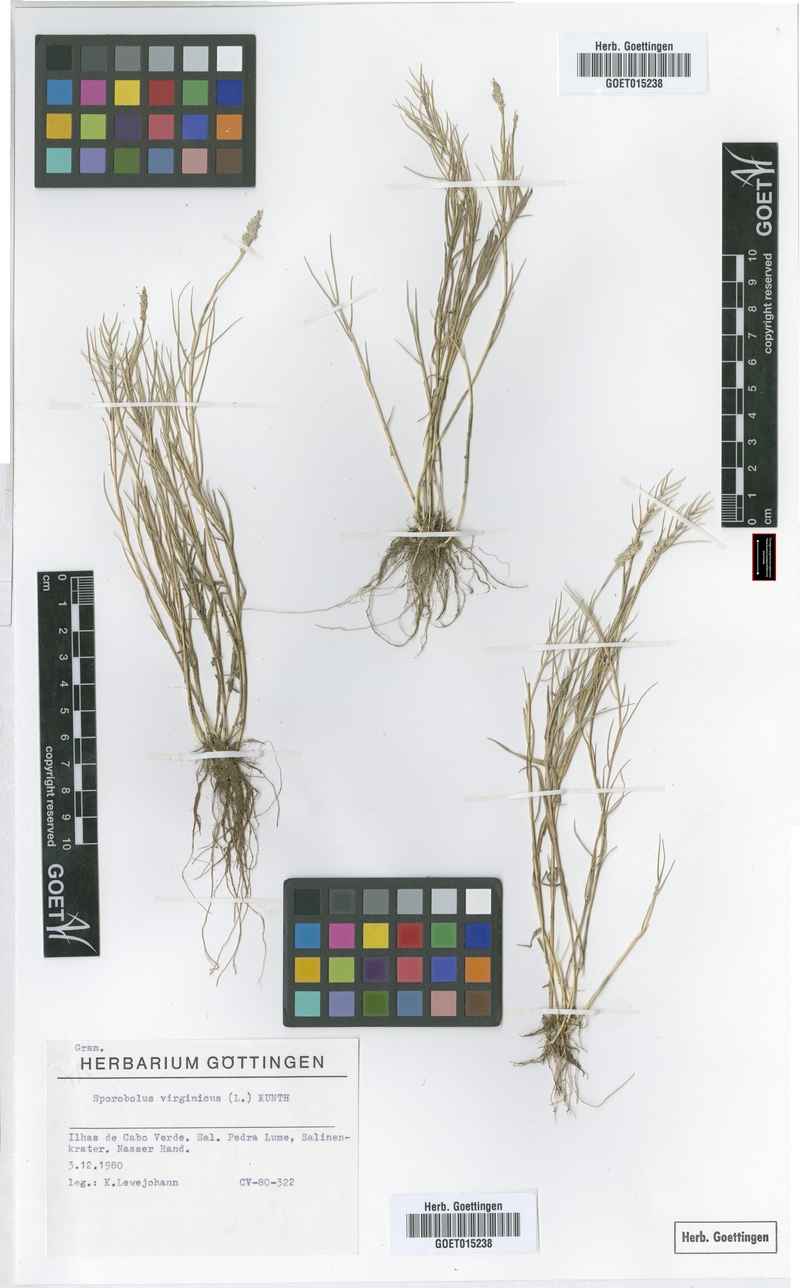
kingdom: Plantae
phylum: Tracheophyta
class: Liliopsida
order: Poales
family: Poaceae
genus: Sporobolus
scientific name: Sporobolus virginicus
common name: Beach dropseed
